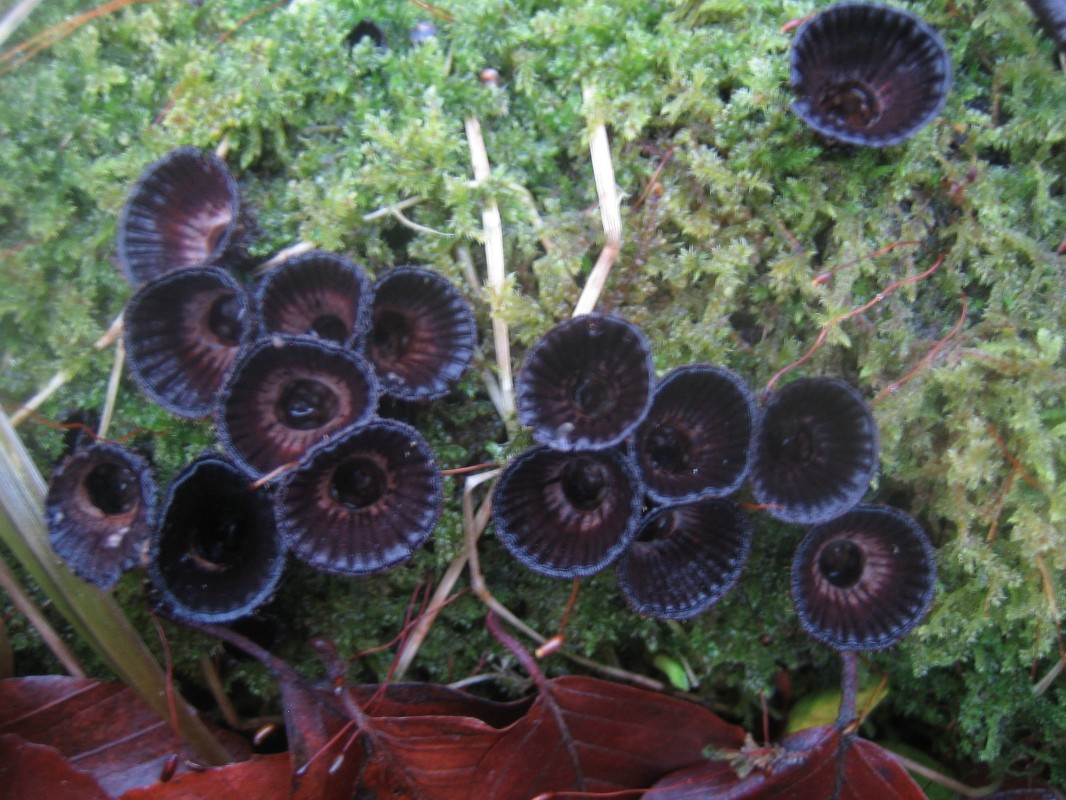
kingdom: Fungi
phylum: Basidiomycota
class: Agaricomycetes
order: Agaricales
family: Agaricaceae
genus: Cyathus
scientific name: Cyathus striatus
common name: stribet redesvamp
